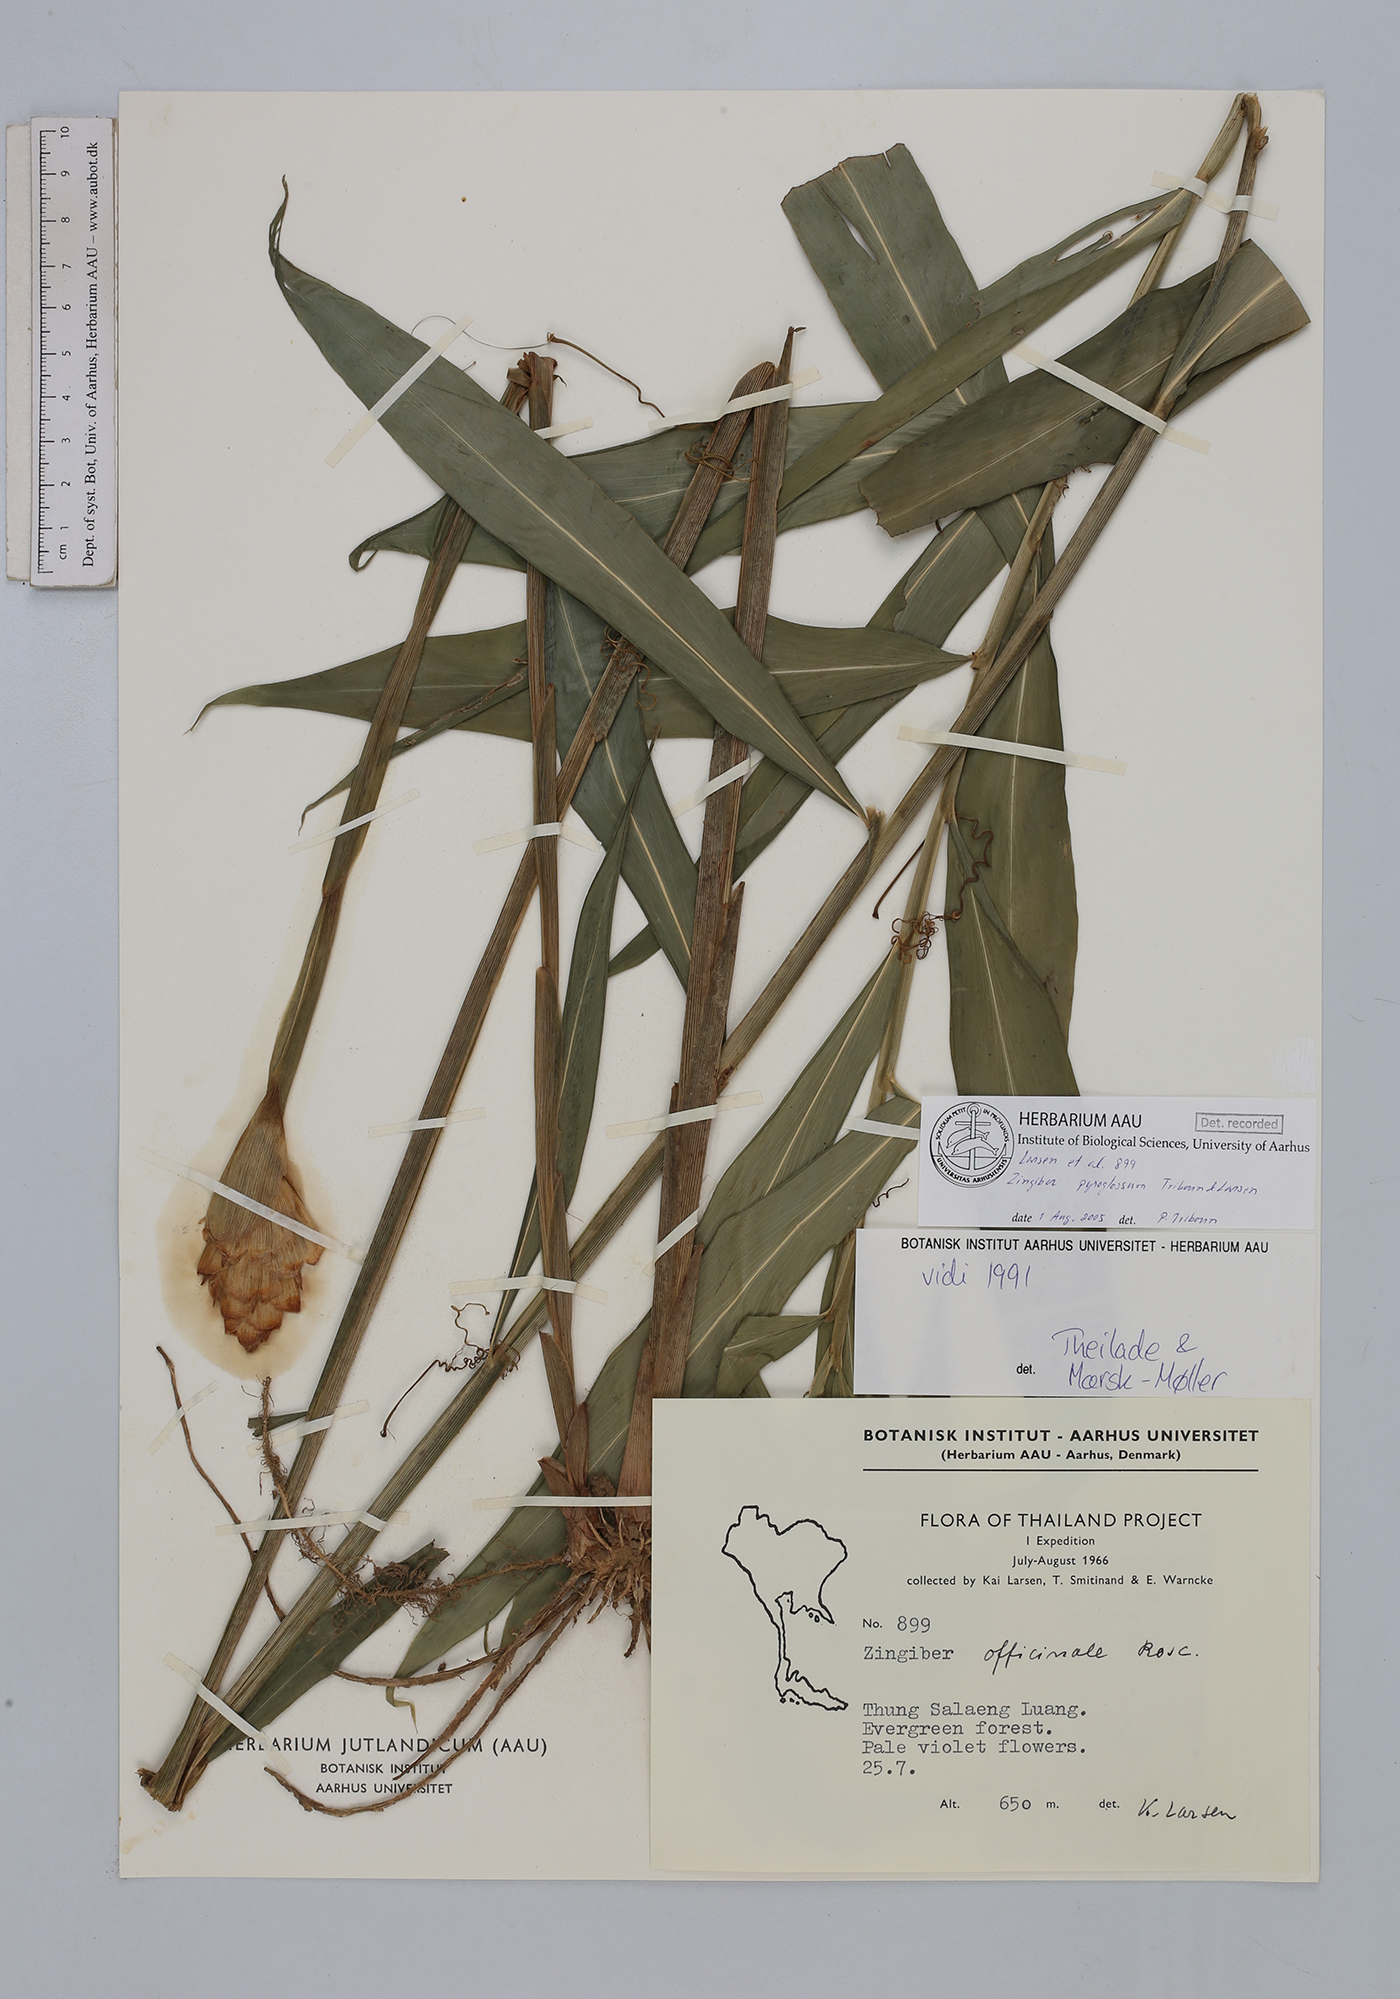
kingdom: Plantae
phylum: Tracheophyta
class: Liliopsida
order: Zingiberales
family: Zingiberaceae
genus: Zingiber
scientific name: Zingiber pyroglossum
